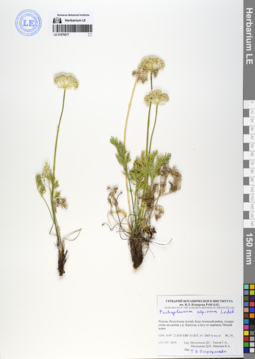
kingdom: Plantae
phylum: Tracheophyta
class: Magnoliopsida
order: Apiales
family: Apiaceae
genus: Pachypleurum
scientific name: Pachypleurum mutellinoides
